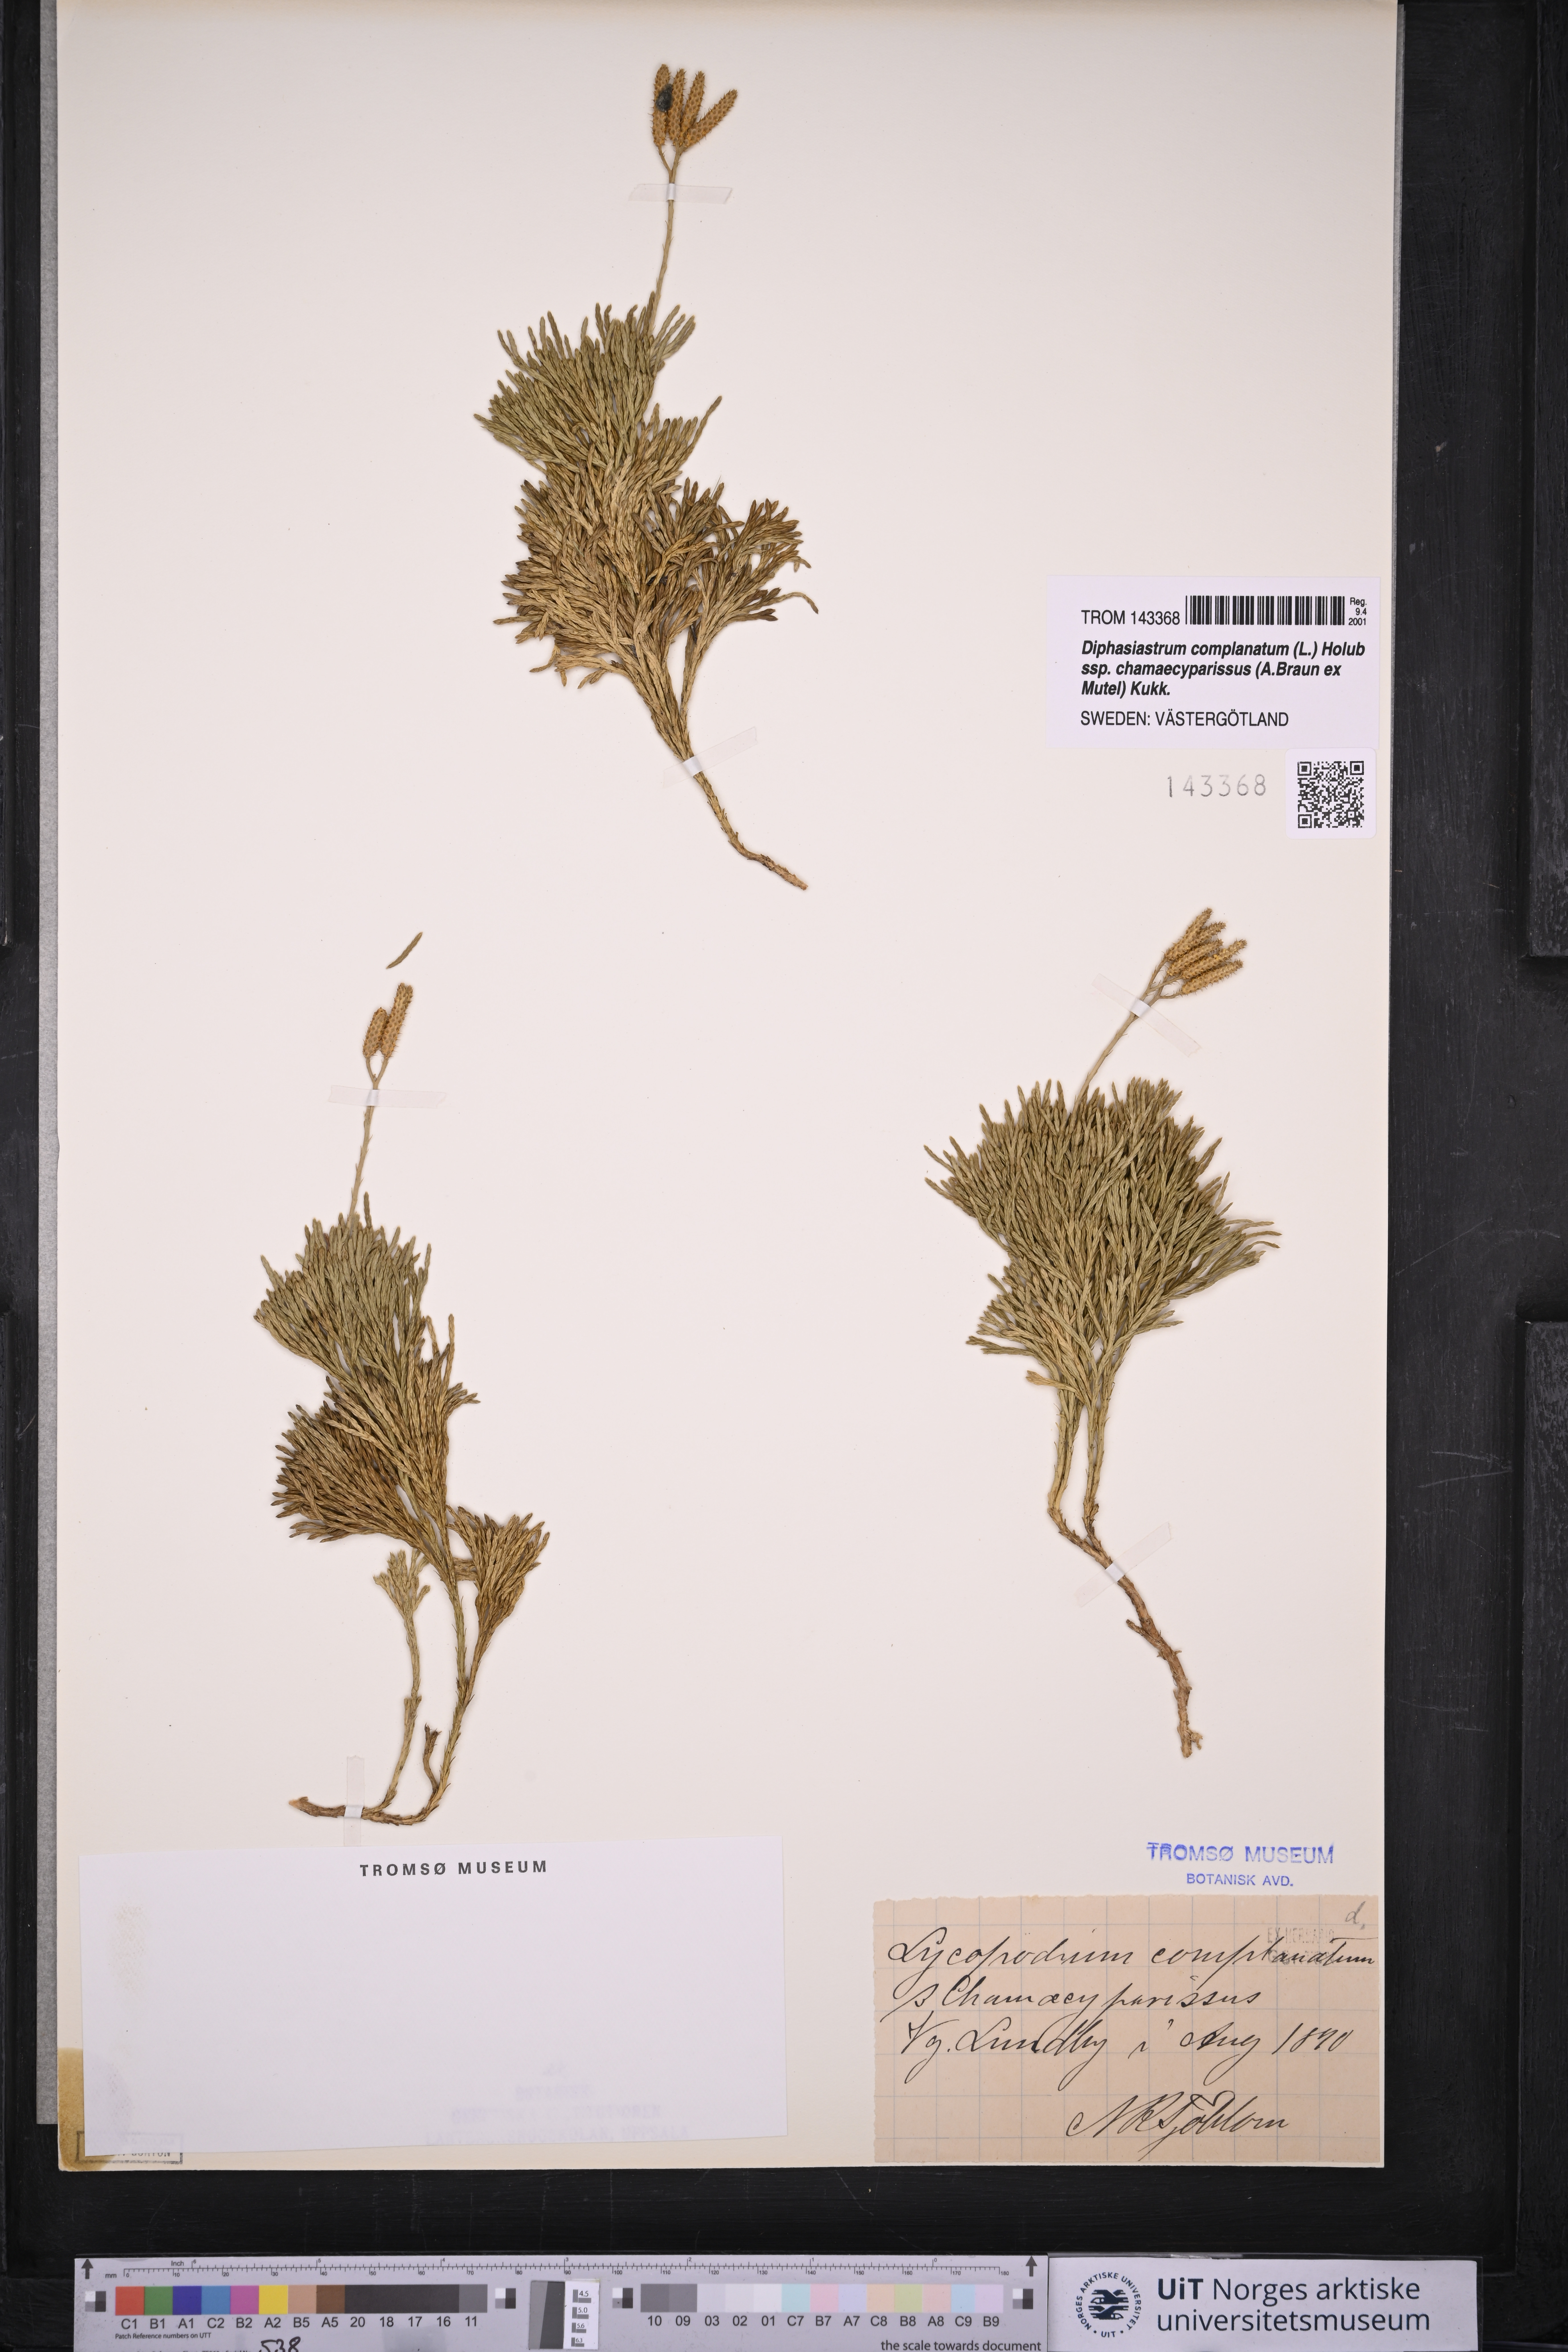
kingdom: Plantae
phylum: Tracheophyta
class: Lycopodiopsida
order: Lycopodiales
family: Lycopodiaceae
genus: Diphasiastrum
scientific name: Diphasiastrum tristachyum
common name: Blue ground-cedar
